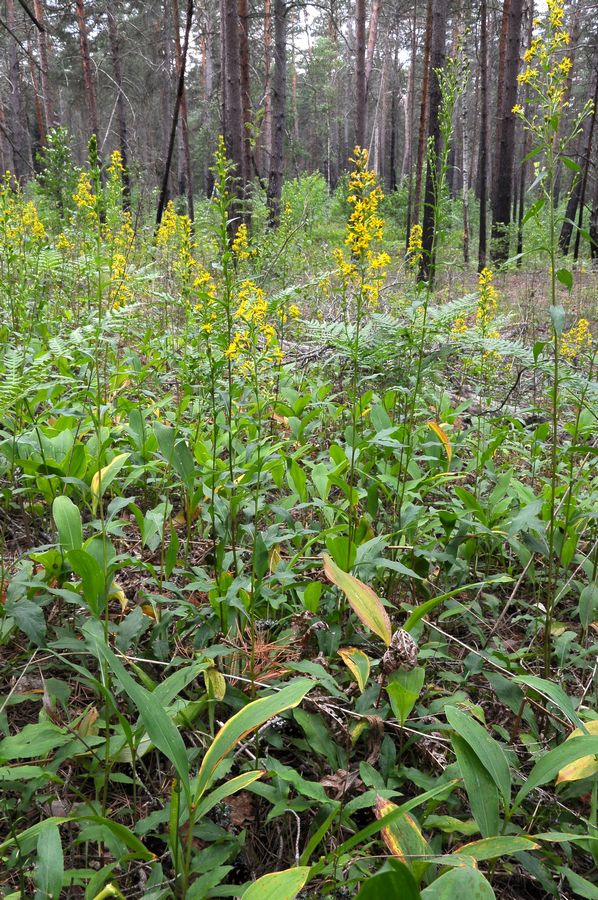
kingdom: Plantae
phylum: Tracheophyta
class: Magnoliopsida
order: Asterales
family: Asteraceae
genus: Solidago
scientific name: Solidago virgaurea
